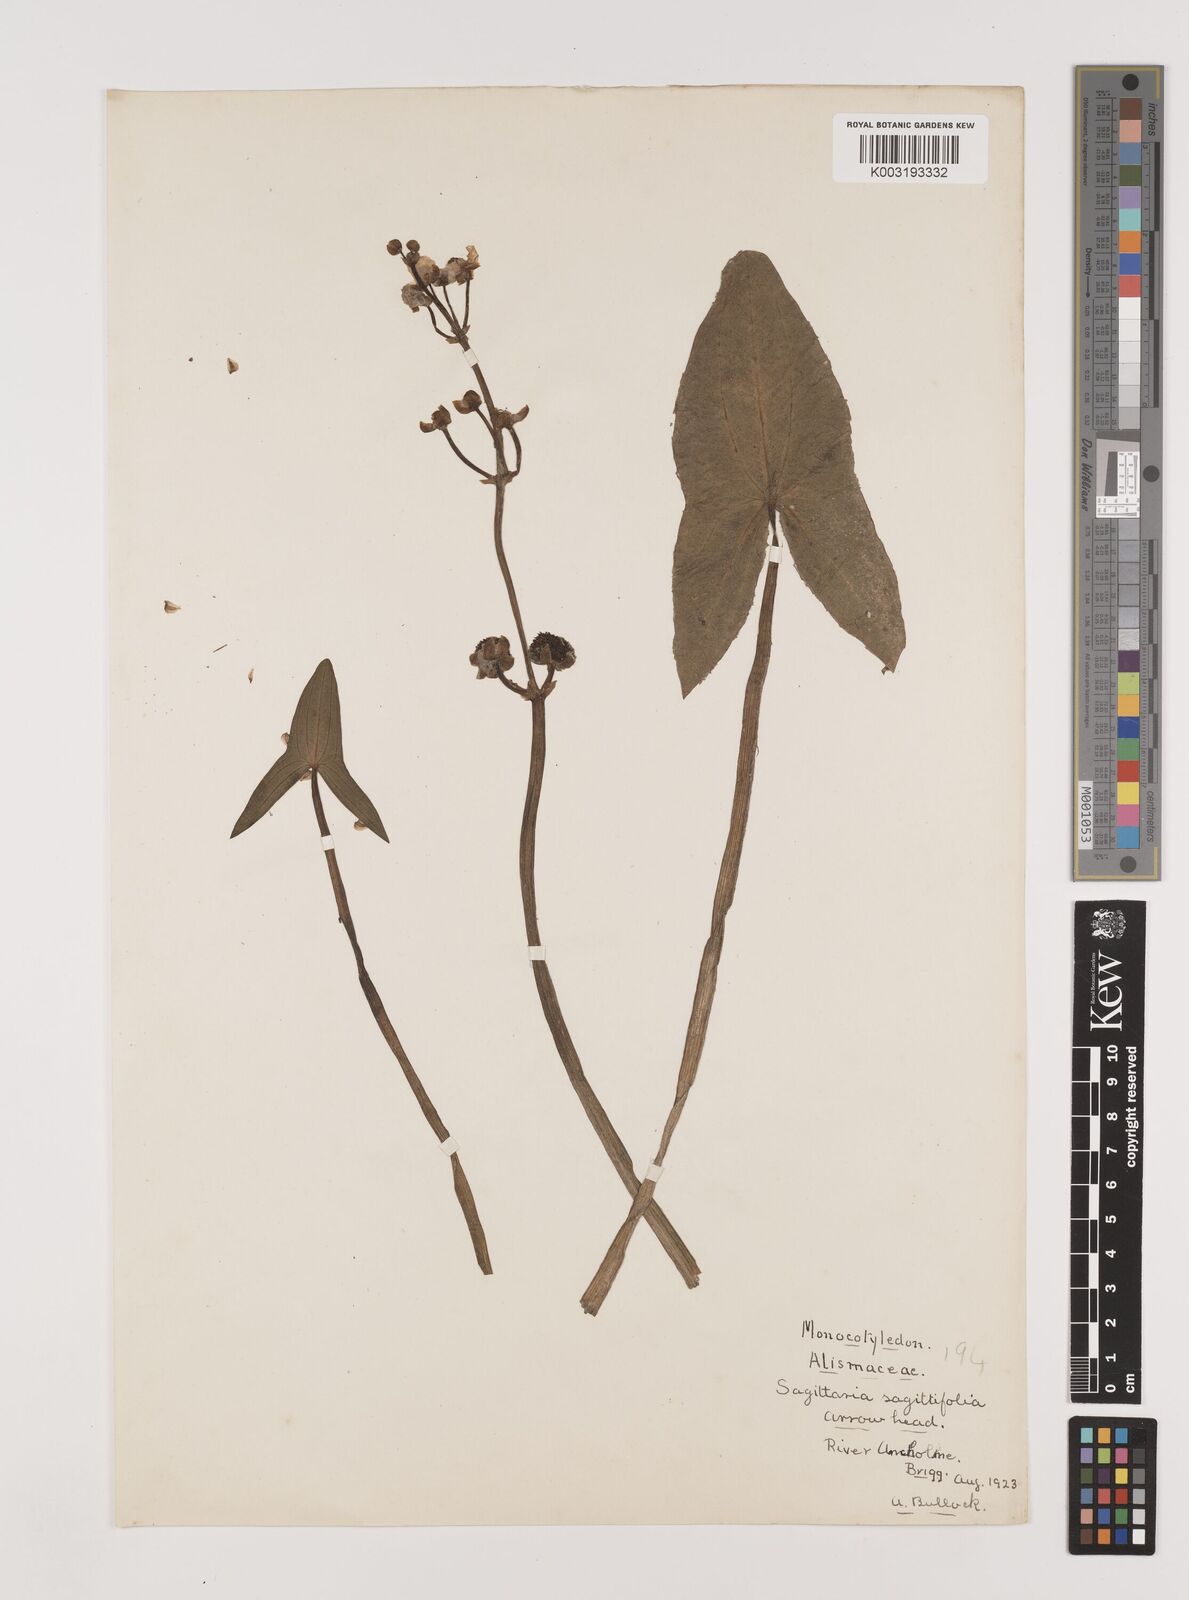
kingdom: Plantae
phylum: Tracheophyta
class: Liliopsida
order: Alismatales
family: Alismataceae
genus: Sagittaria
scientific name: Sagittaria sagittifolia
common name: Arrowhead
